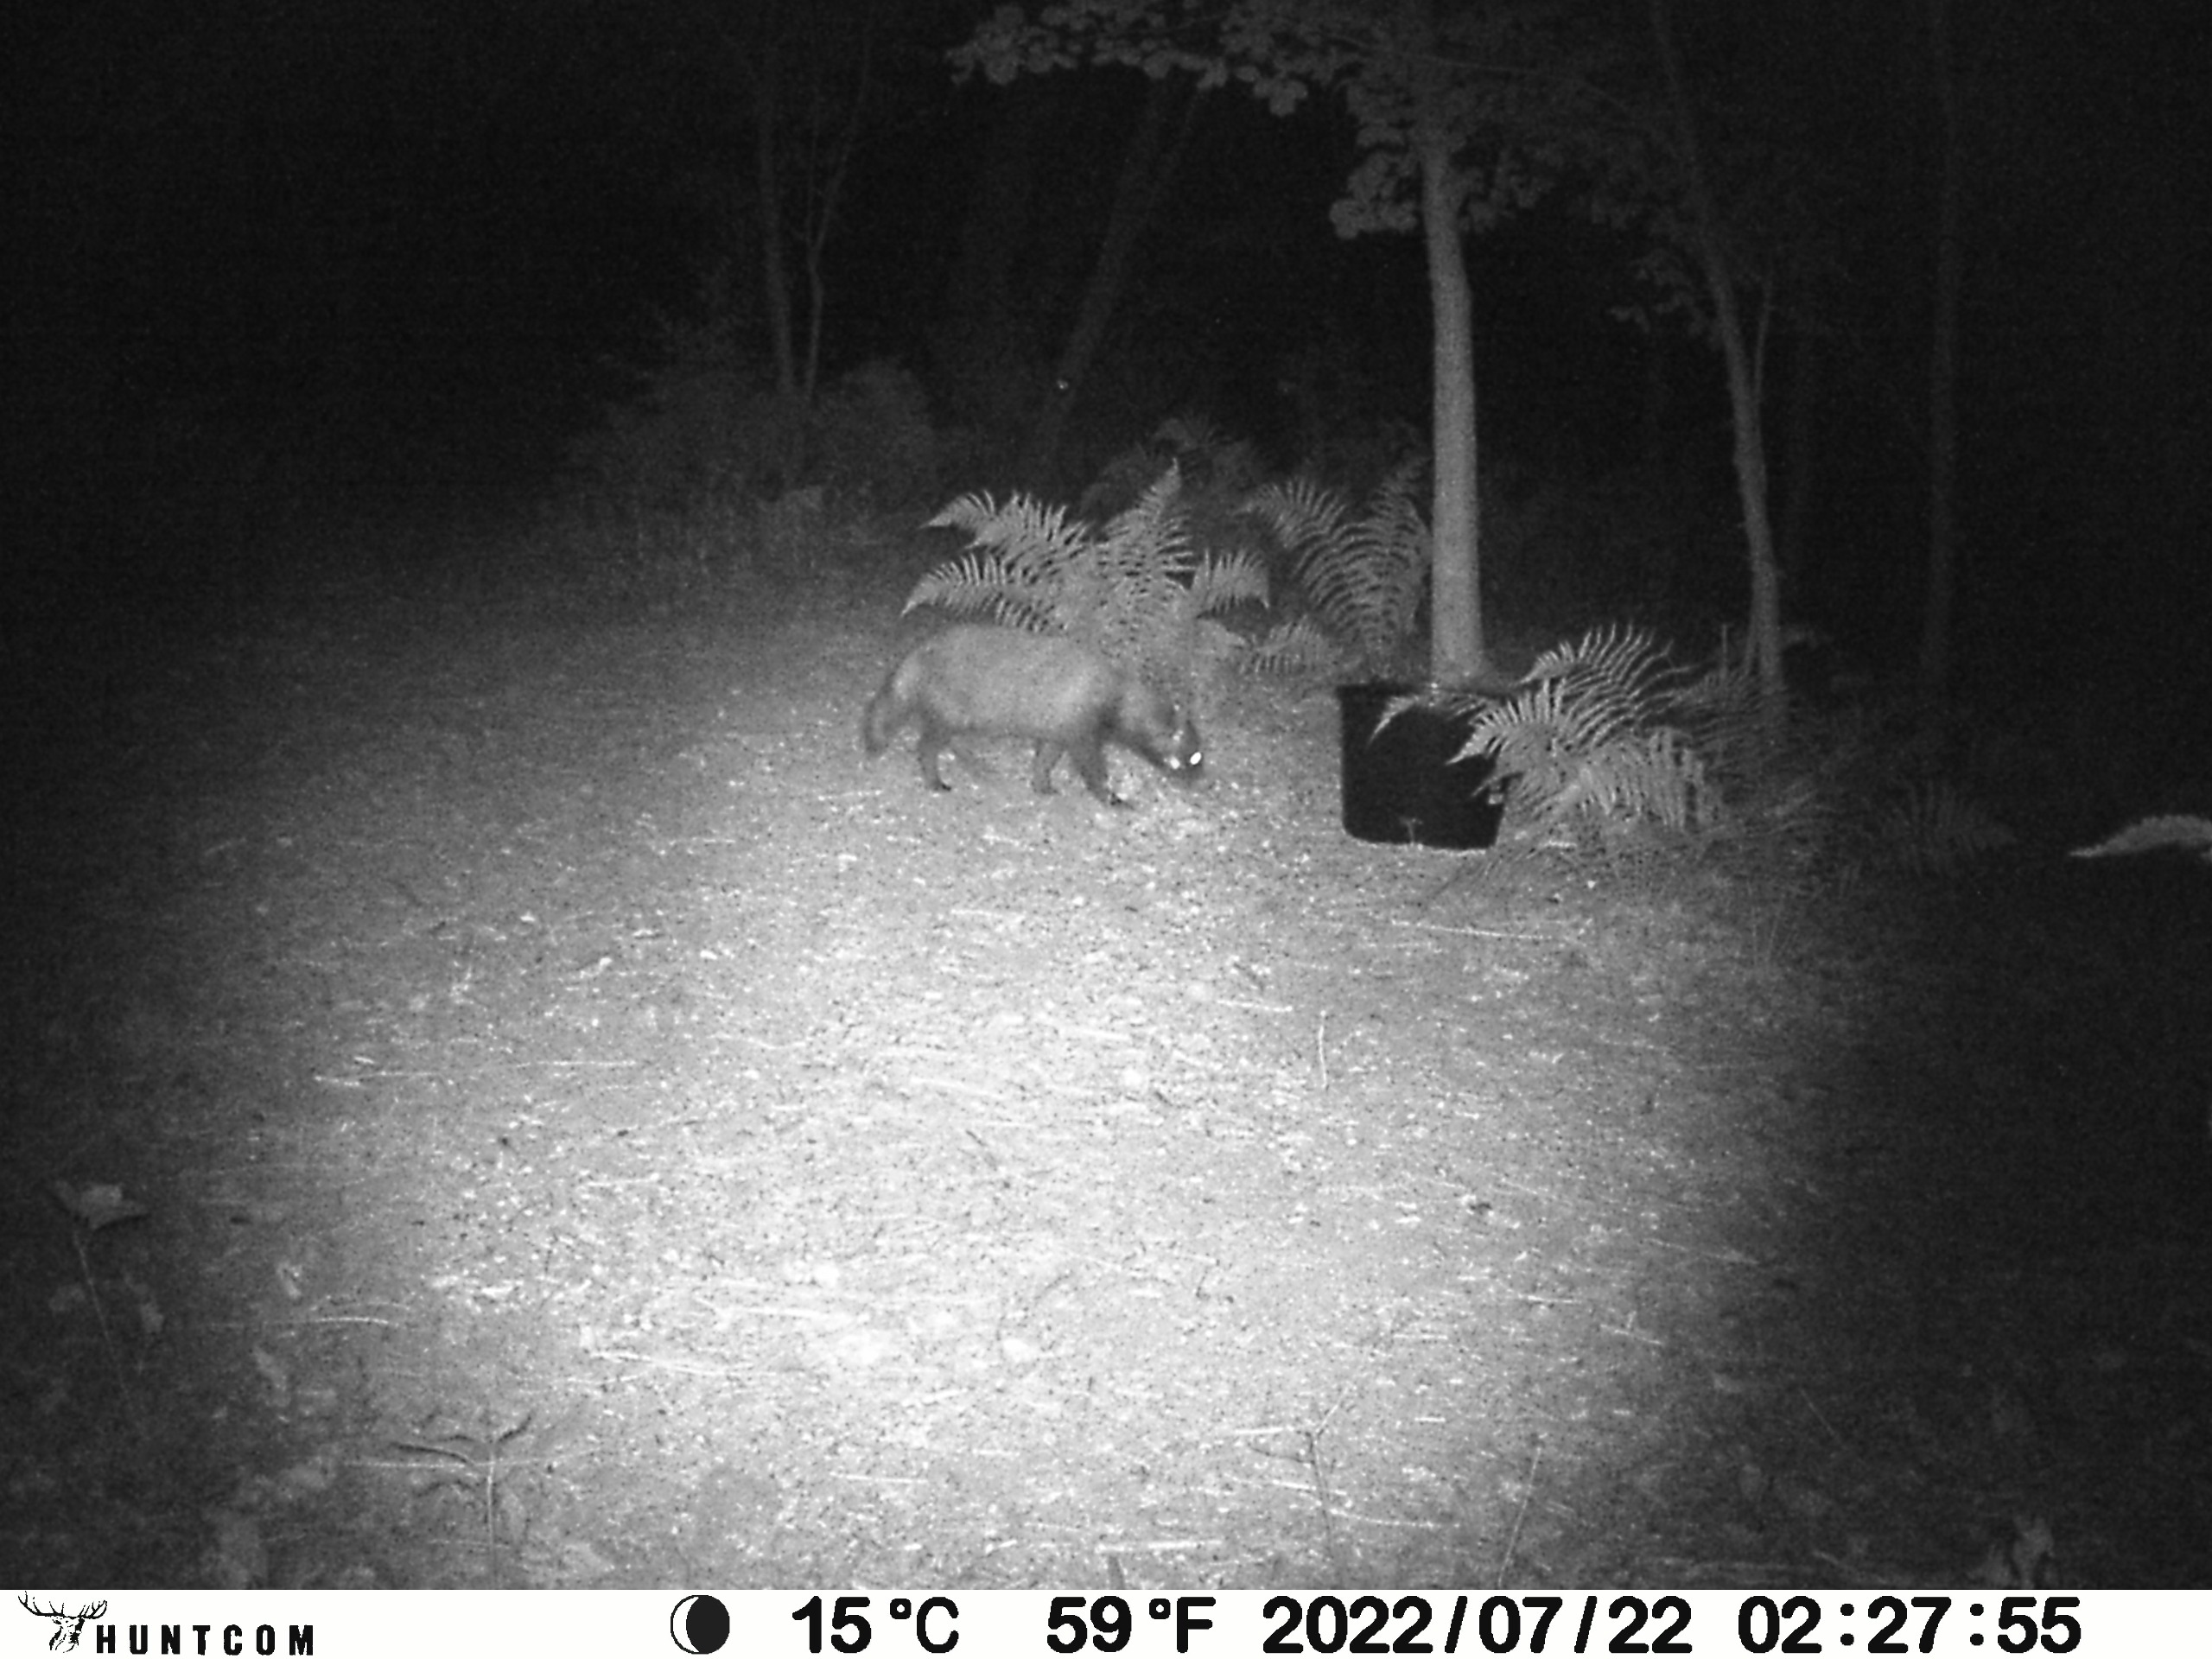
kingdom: Animalia
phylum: Chordata
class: Mammalia
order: Carnivora
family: Canidae
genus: Nyctereutes
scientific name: Nyctereutes procyonoides
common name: Mårhund
